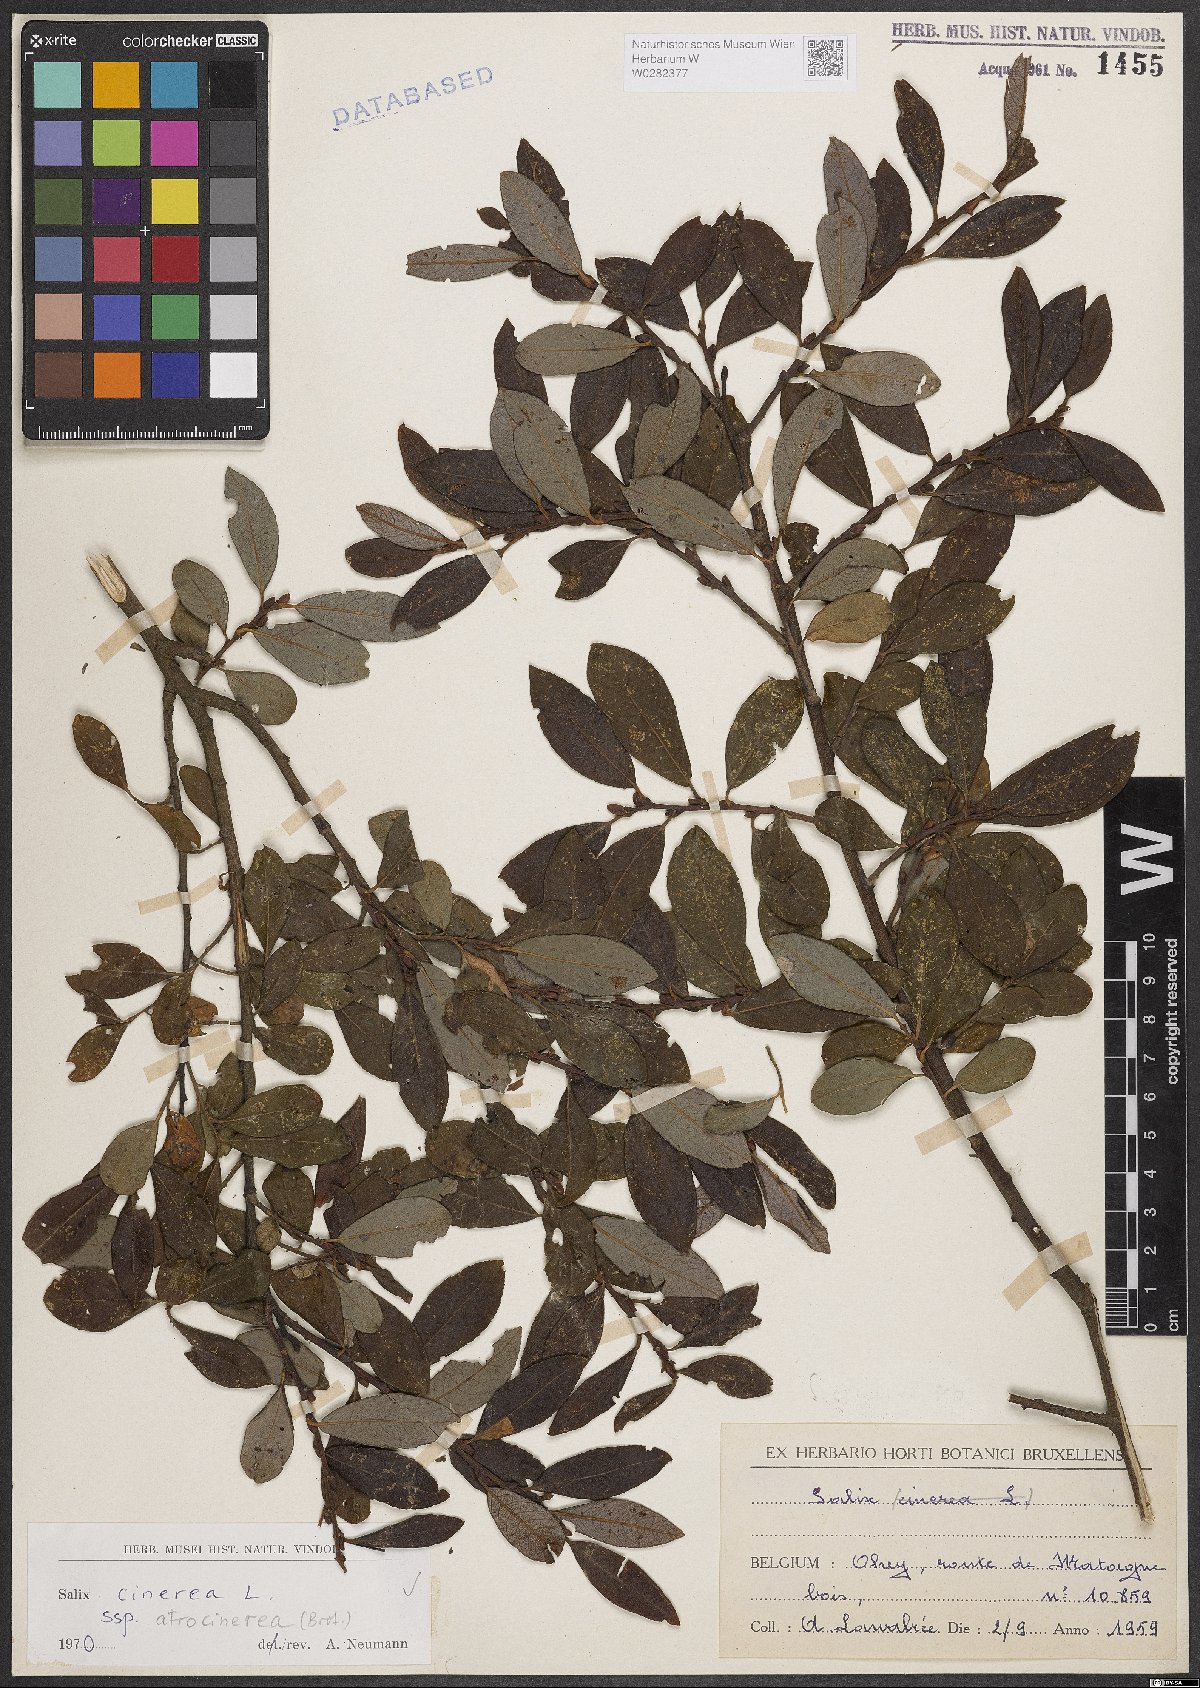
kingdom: Plantae
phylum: Tracheophyta
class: Magnoliopsida
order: Malpighiales
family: Salicaceae
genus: Salix
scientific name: Salix atrocinerea
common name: Rusty willow
